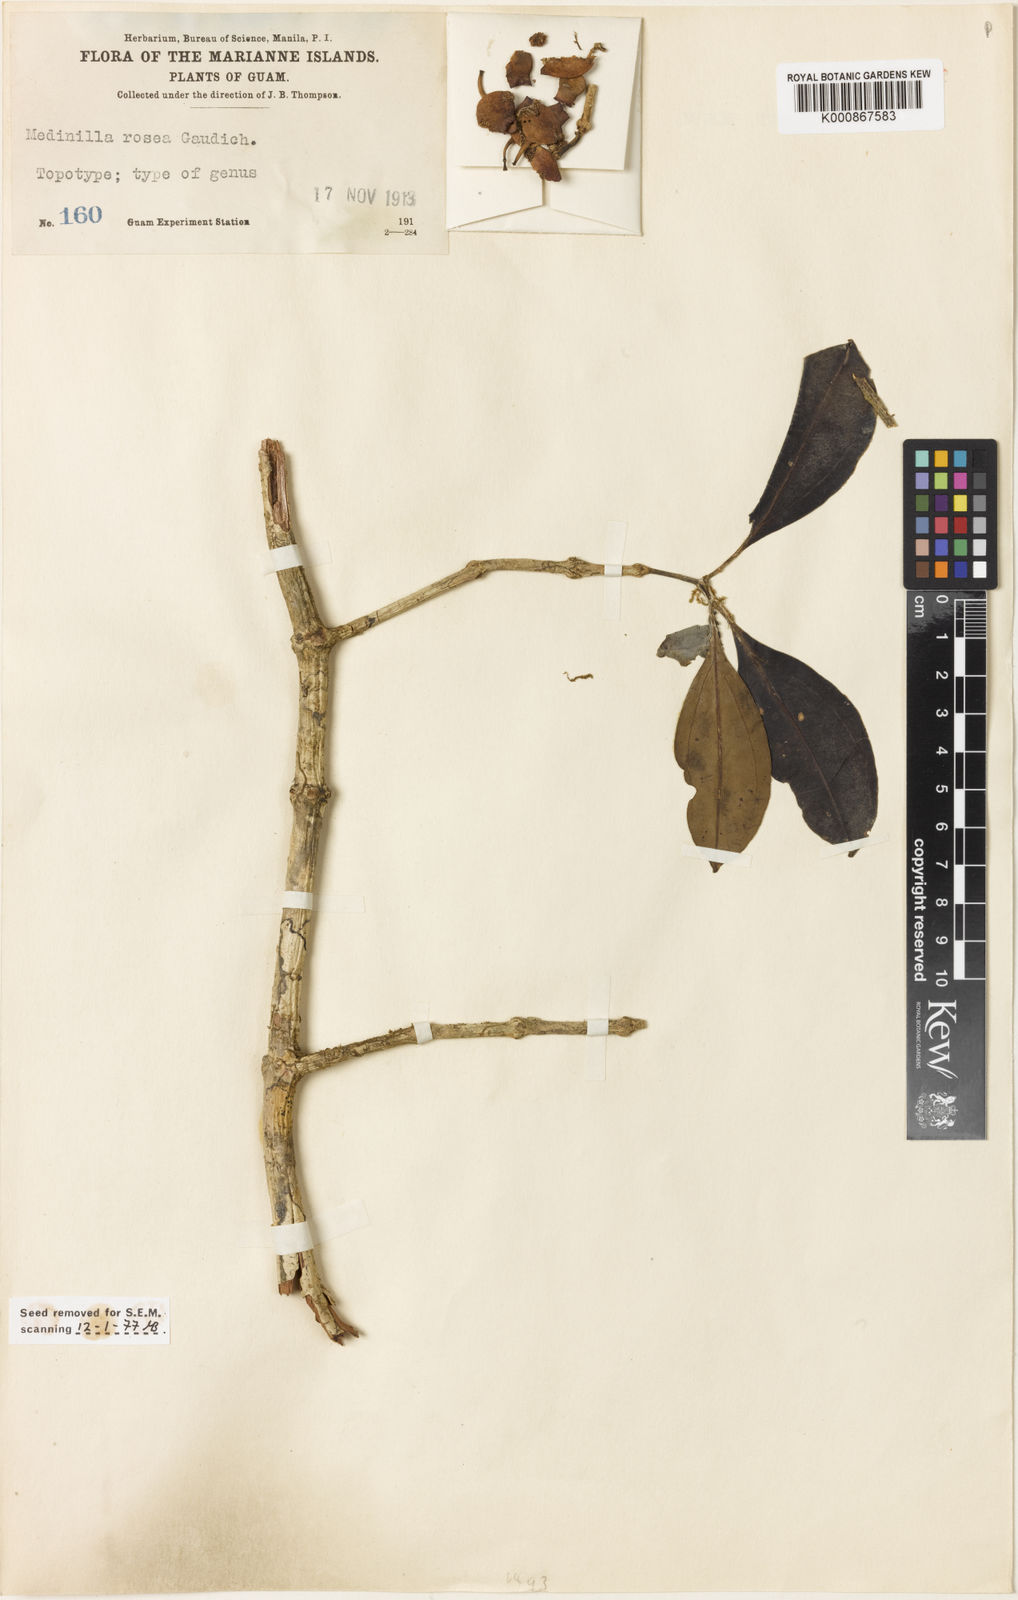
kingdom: Plantae
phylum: Tracheophyta
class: Magnoliopsida
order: Myrtales
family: Melastomataceae
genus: Medinilla
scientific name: Medinilla medinilliana
